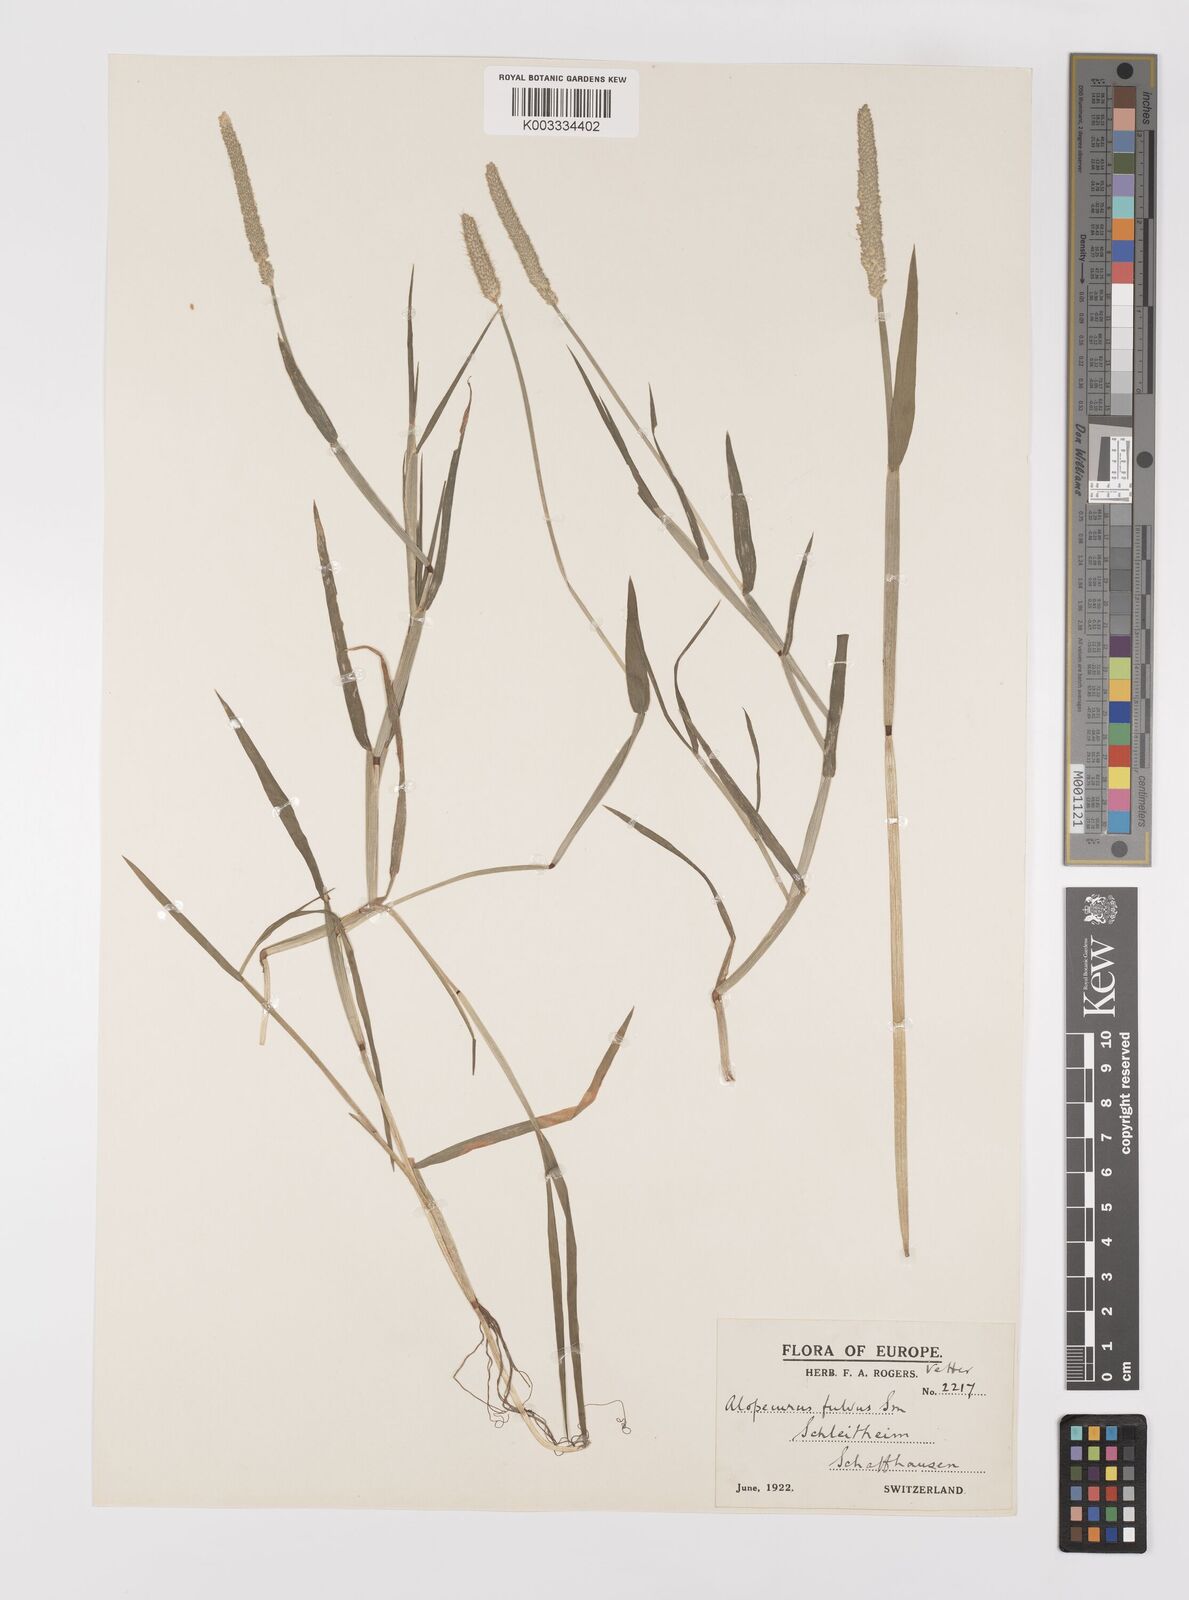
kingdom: Plantae
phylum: Tracheophyta
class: Liliopsida
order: Poales
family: Poaceae
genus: Alopecurus
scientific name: Alopecurus aequalis
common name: Orange foxtail
